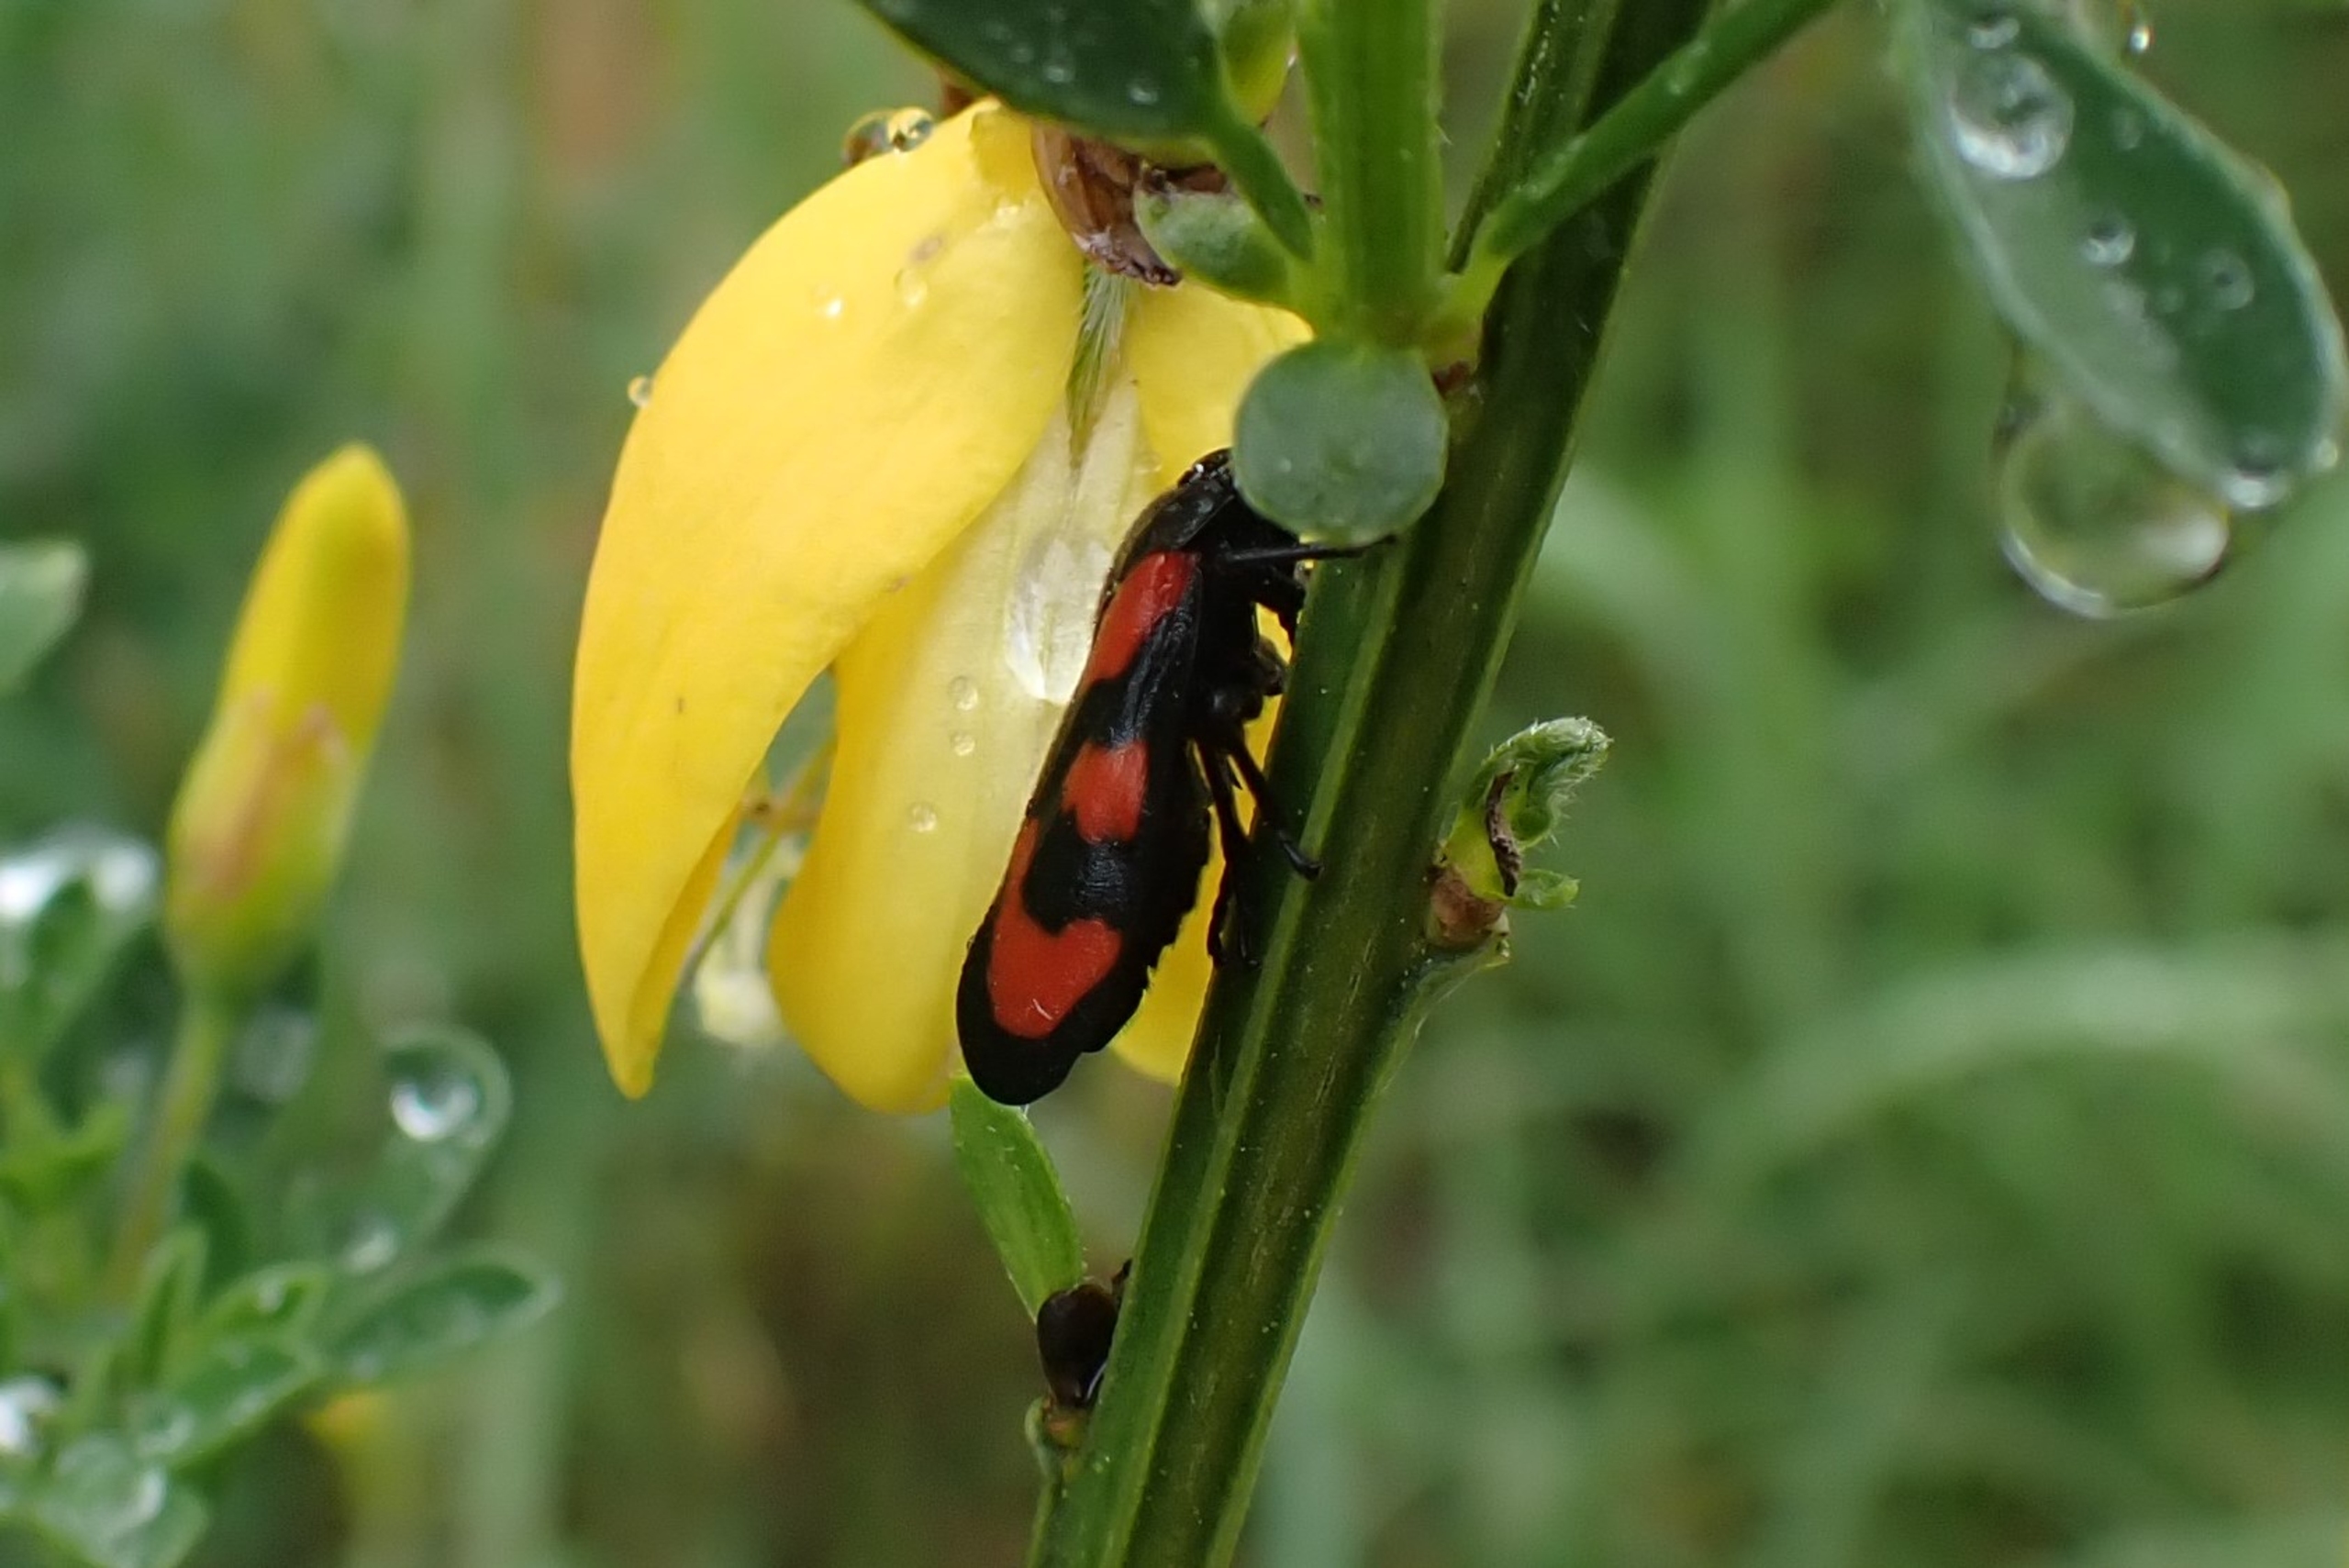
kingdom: Animalia
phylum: Arthropoda
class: Insecta
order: Hemiptera
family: Cercopidae
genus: Cercopis
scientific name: Cercopis vulnerata
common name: Blodcikade
